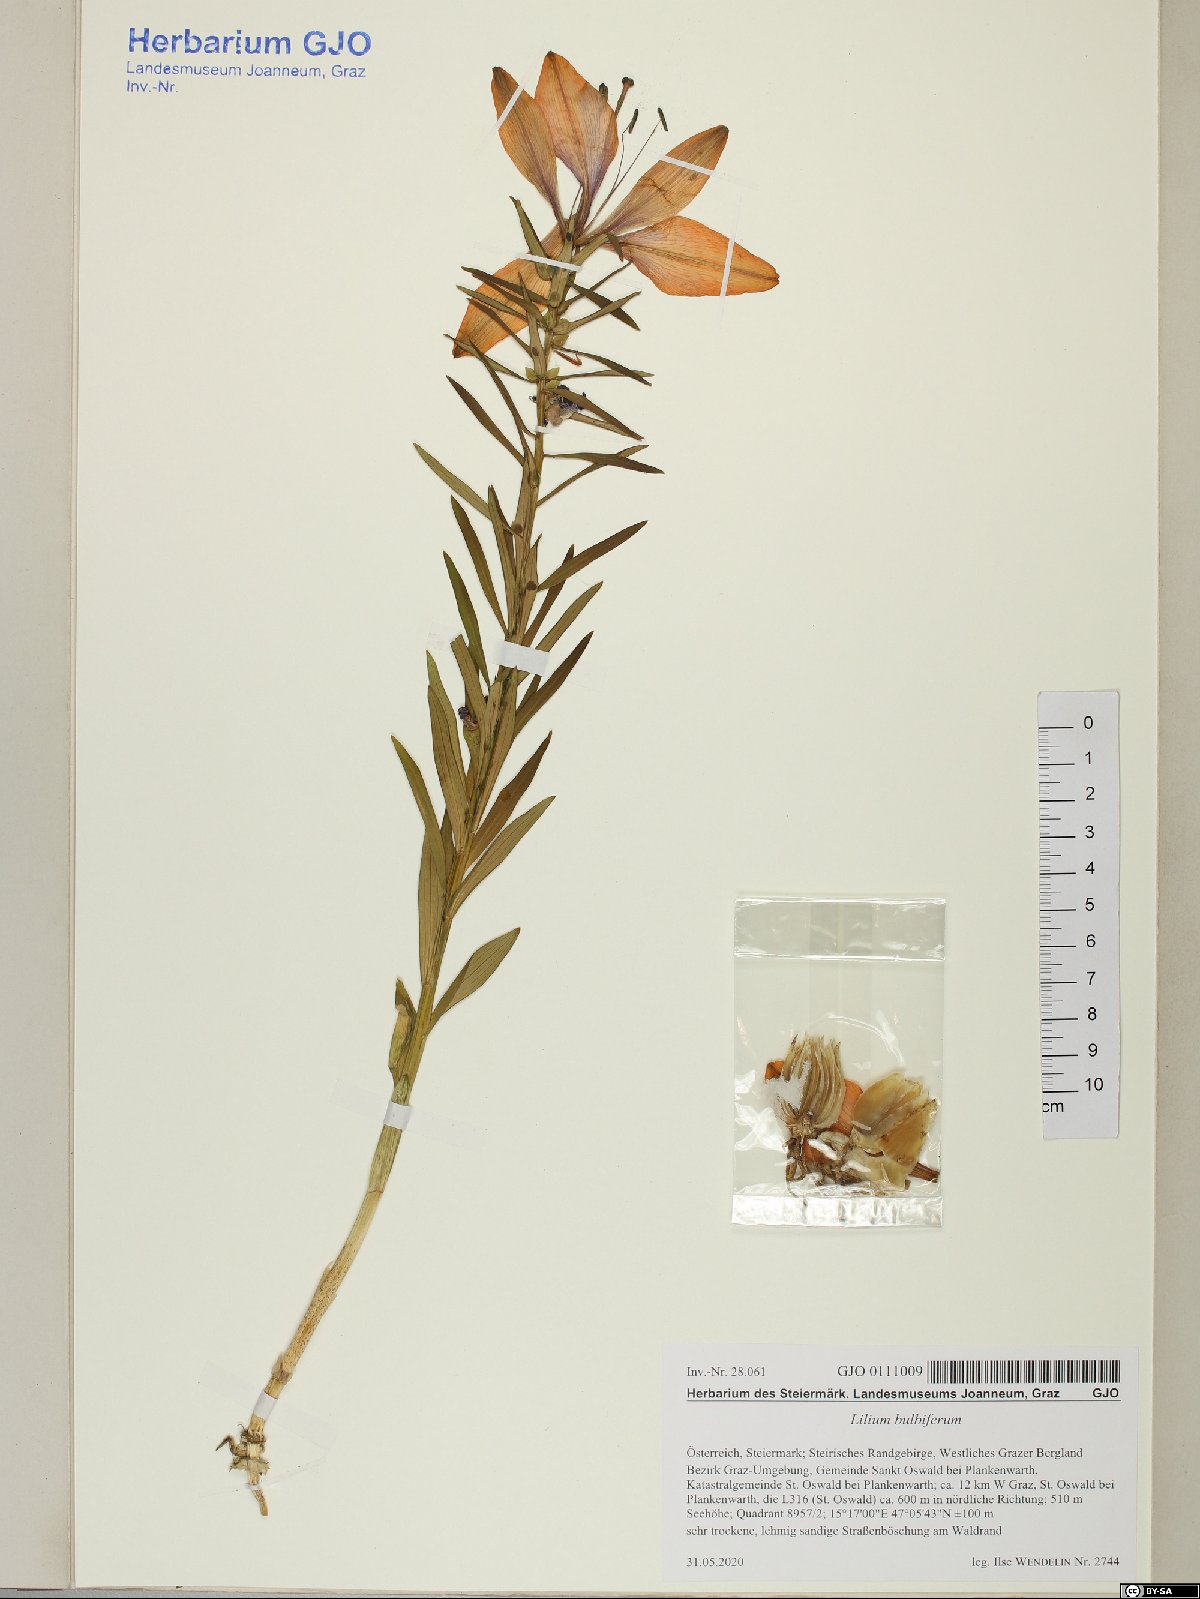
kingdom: Plantae
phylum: Tracheophyta
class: Liliopsida
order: Liliales
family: Liliaceae
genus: Lilium
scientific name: Lilium bulbiferum
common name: Orange lily
